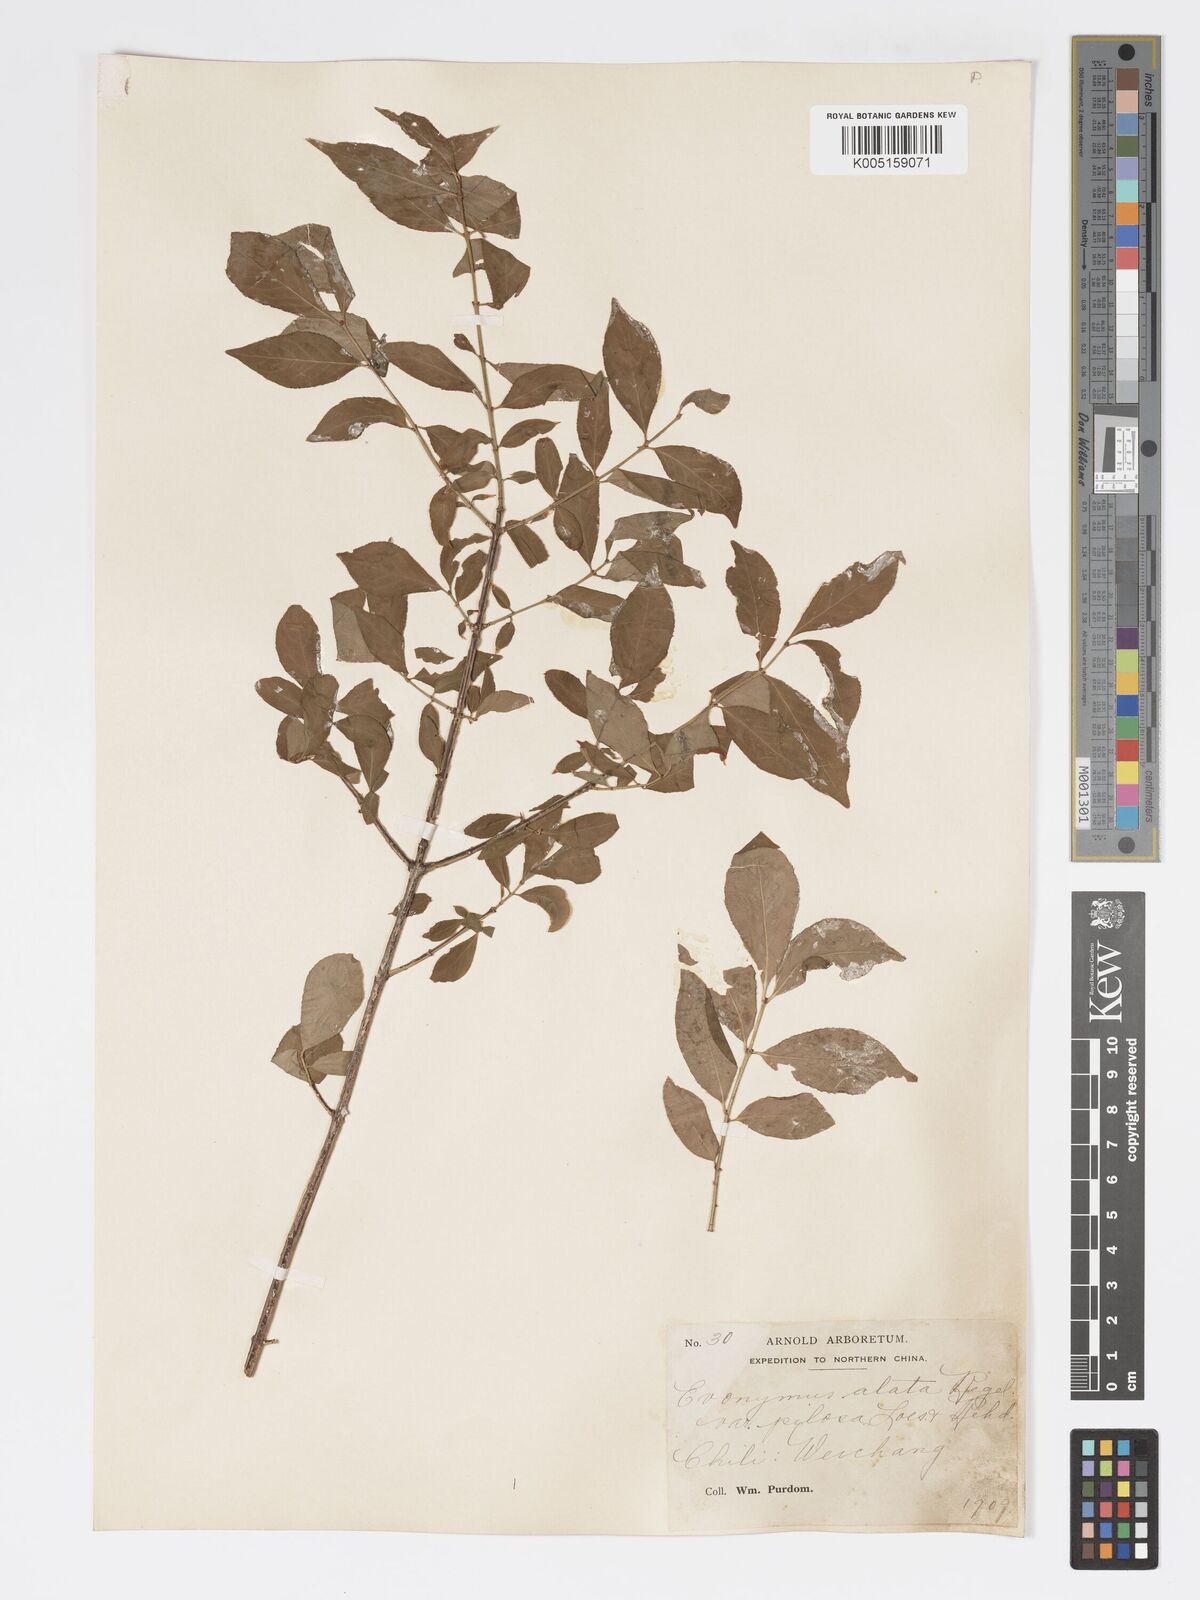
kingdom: Plantae
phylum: Tracheophyta
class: Magnoliopsida
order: Celastrales
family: Celastraceae
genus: Euonymus
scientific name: Euonymus
